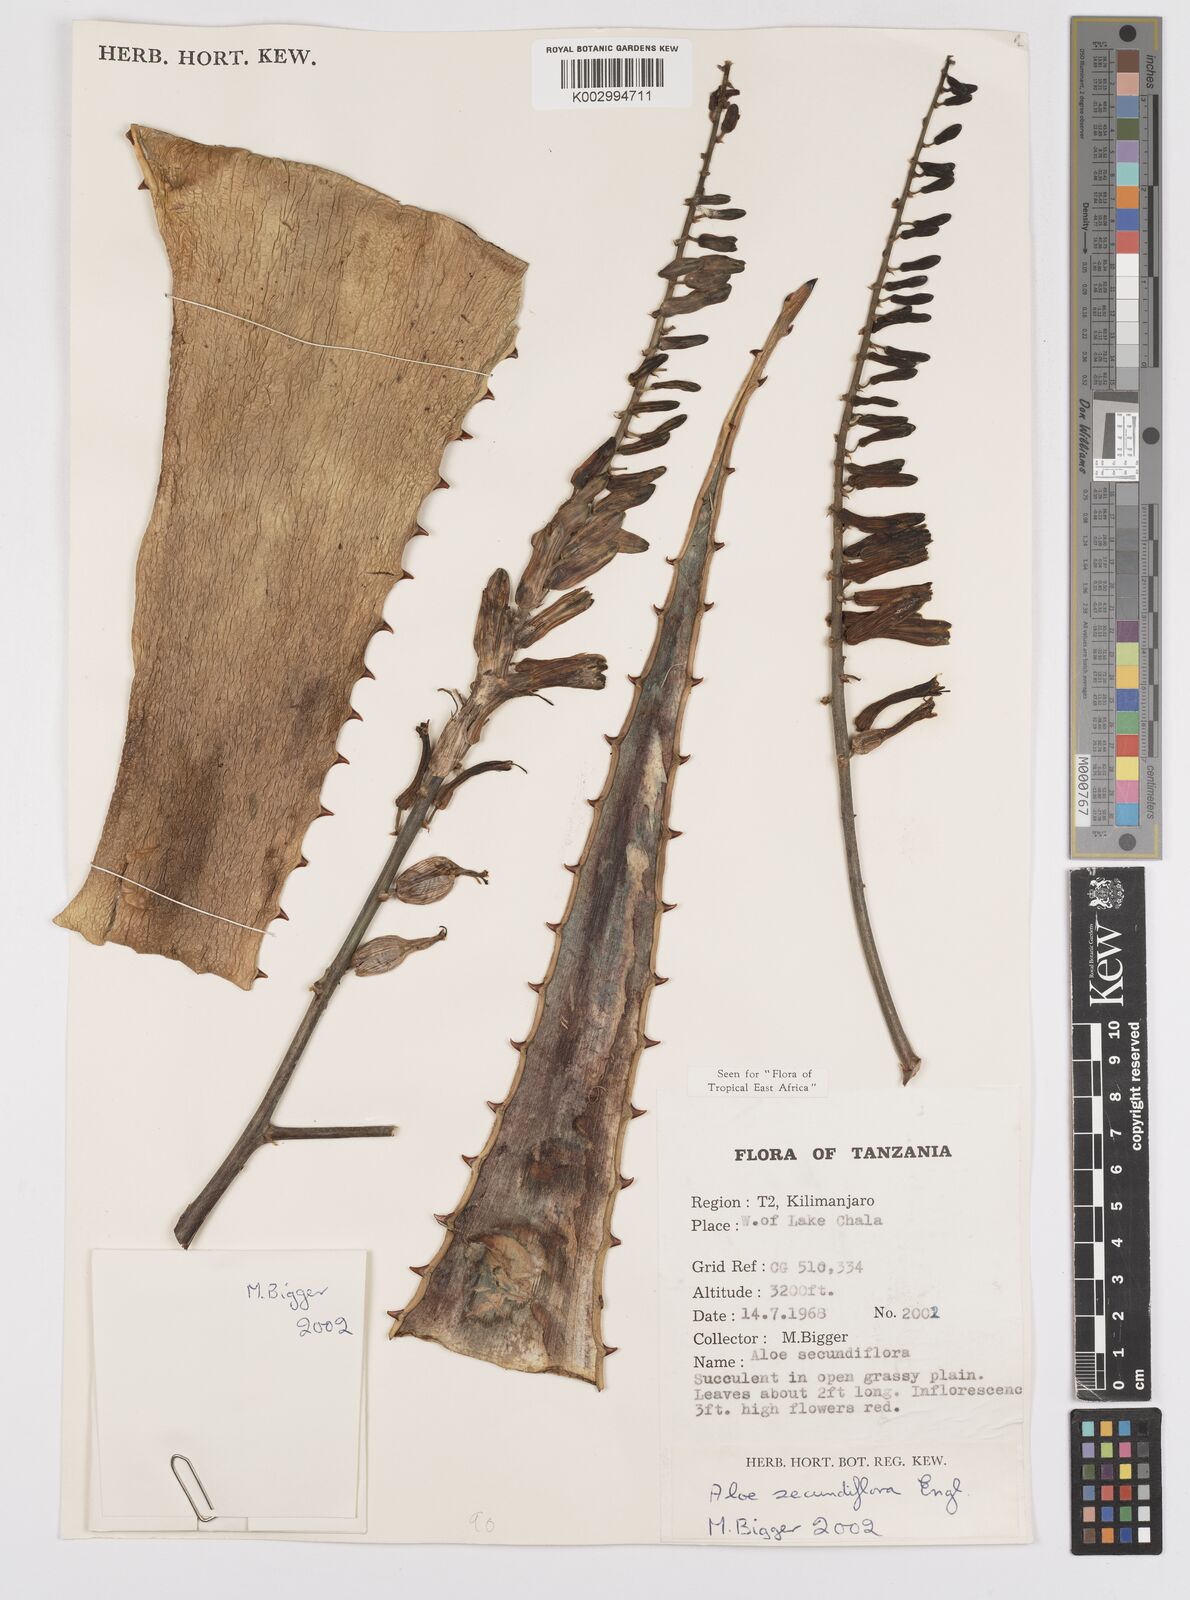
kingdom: Plantae
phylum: Tracheophyta
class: Liliopsida
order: Asparagales
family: Asphodelaceae
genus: Aloe
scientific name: Aloe secundiflora
